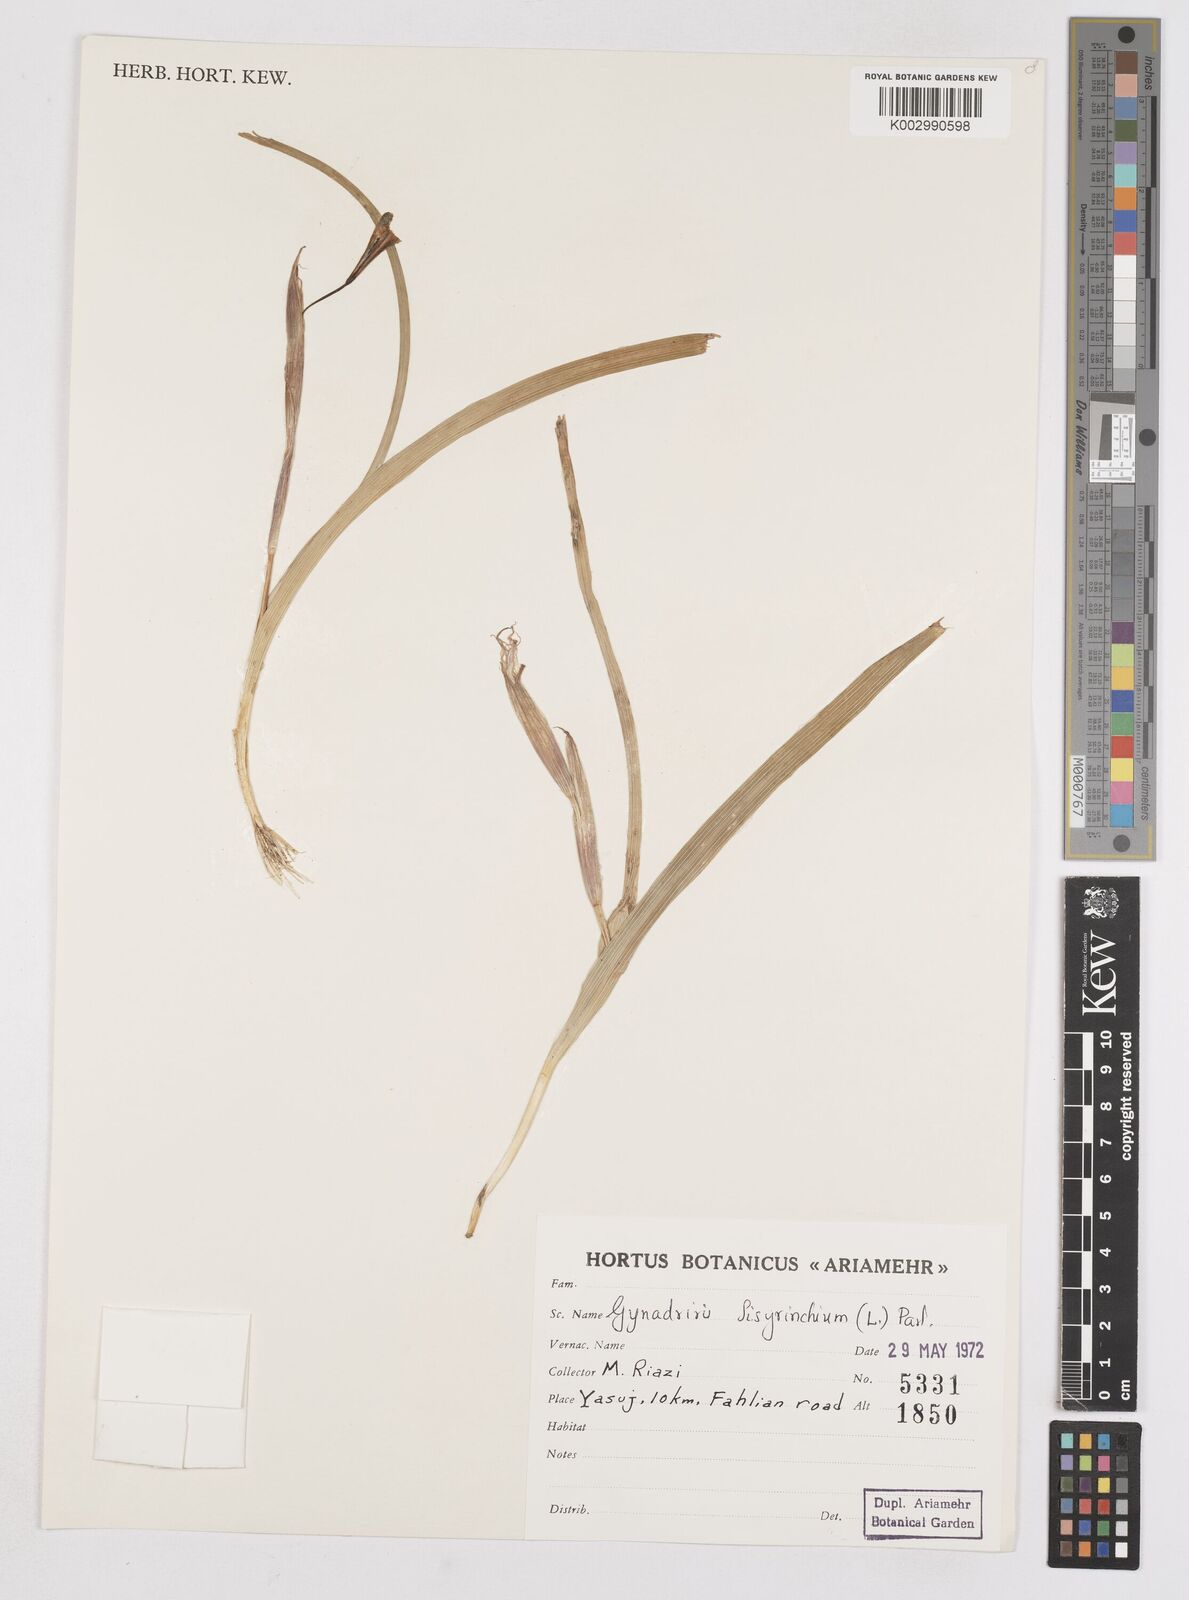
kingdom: Plantae
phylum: Tracheophyta
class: Liliopsida
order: Asparagales
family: Iridaceae
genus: Moraea
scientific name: Moraea sisyrinchium
